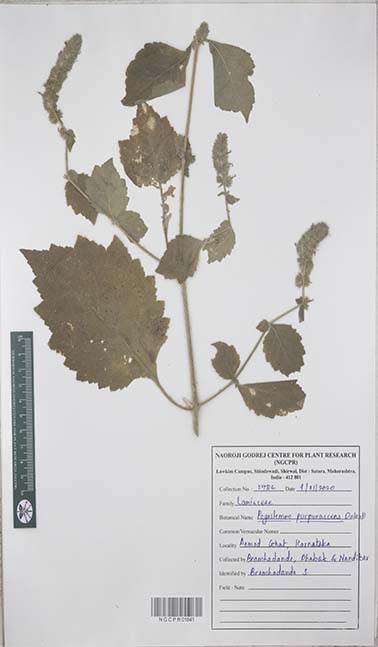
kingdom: Plantae
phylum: Tracheophyta
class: Magnoliopsida
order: Lamiales
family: Lamiaceae
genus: Pogostemon
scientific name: Pogostemon purpurascens
